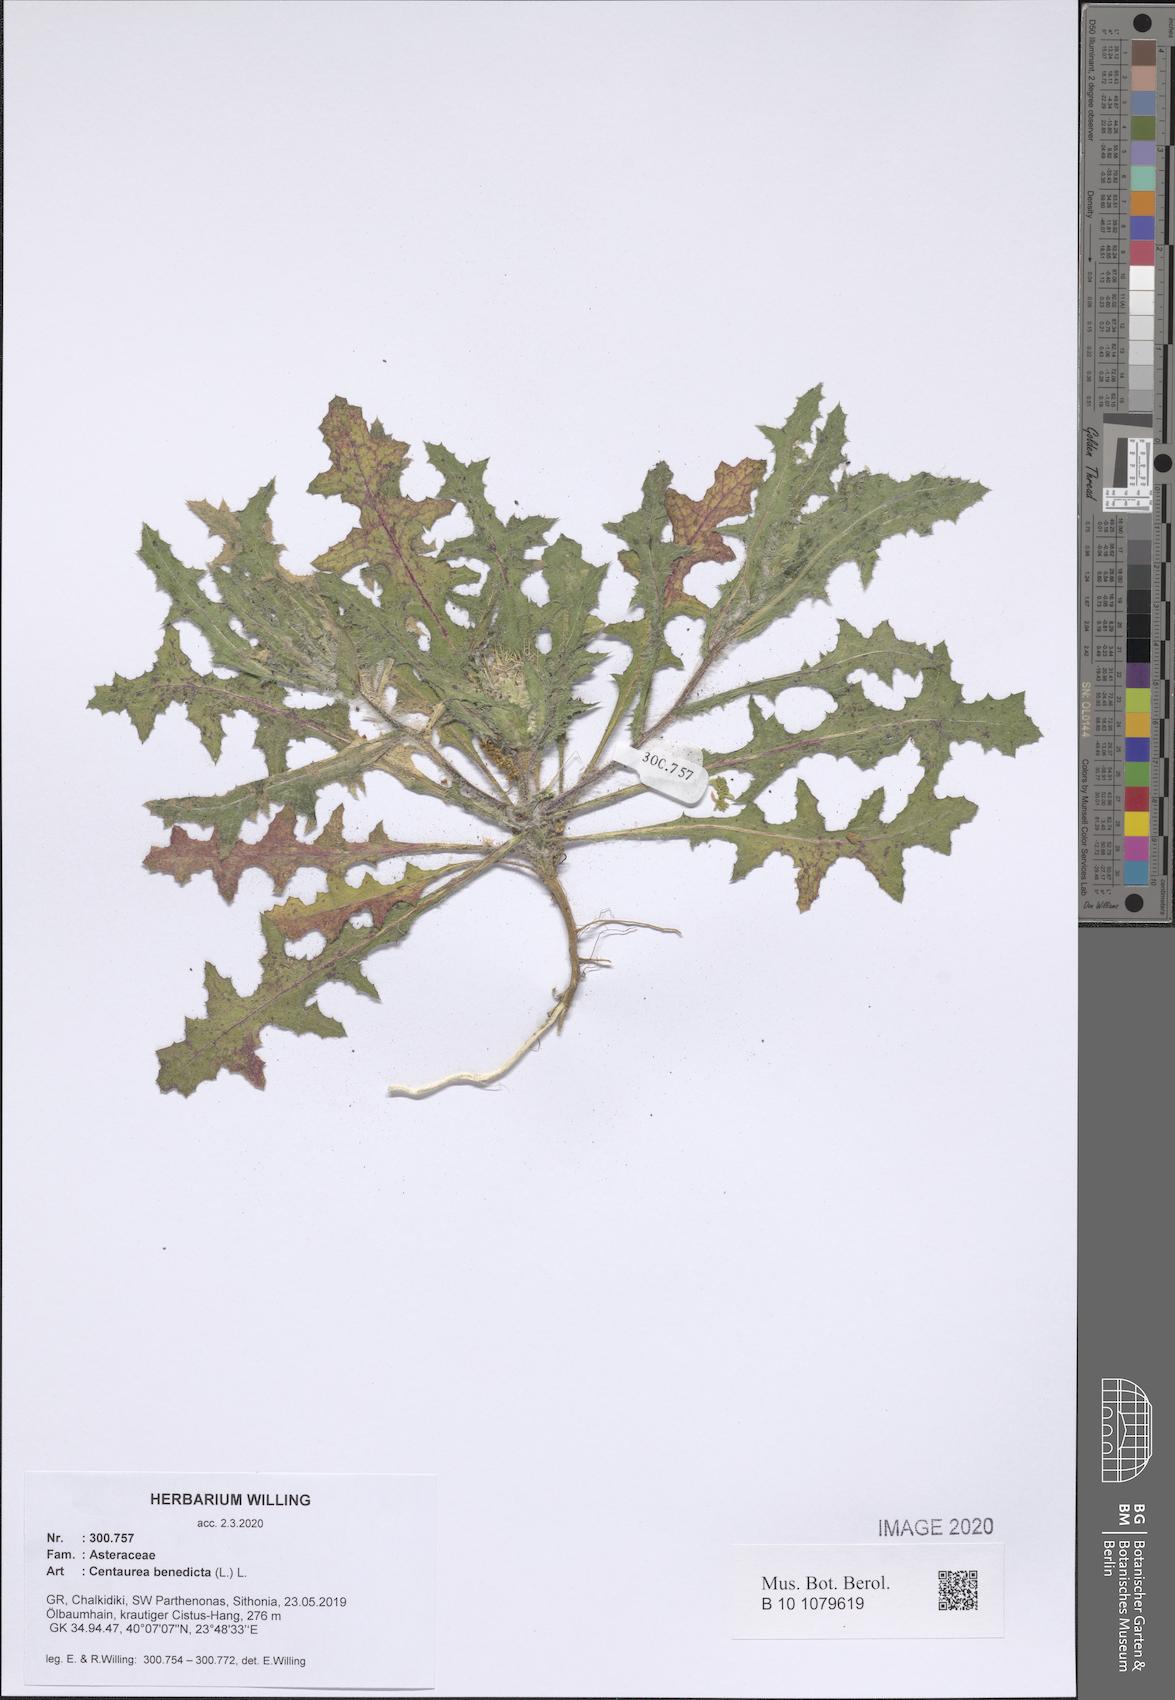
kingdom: Plantae
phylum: Tracheophyta
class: Magnoliopsida
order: Asterales
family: Asteraceae
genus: Centaurea
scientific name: Centaurea benedicta
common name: Blessed thistle
